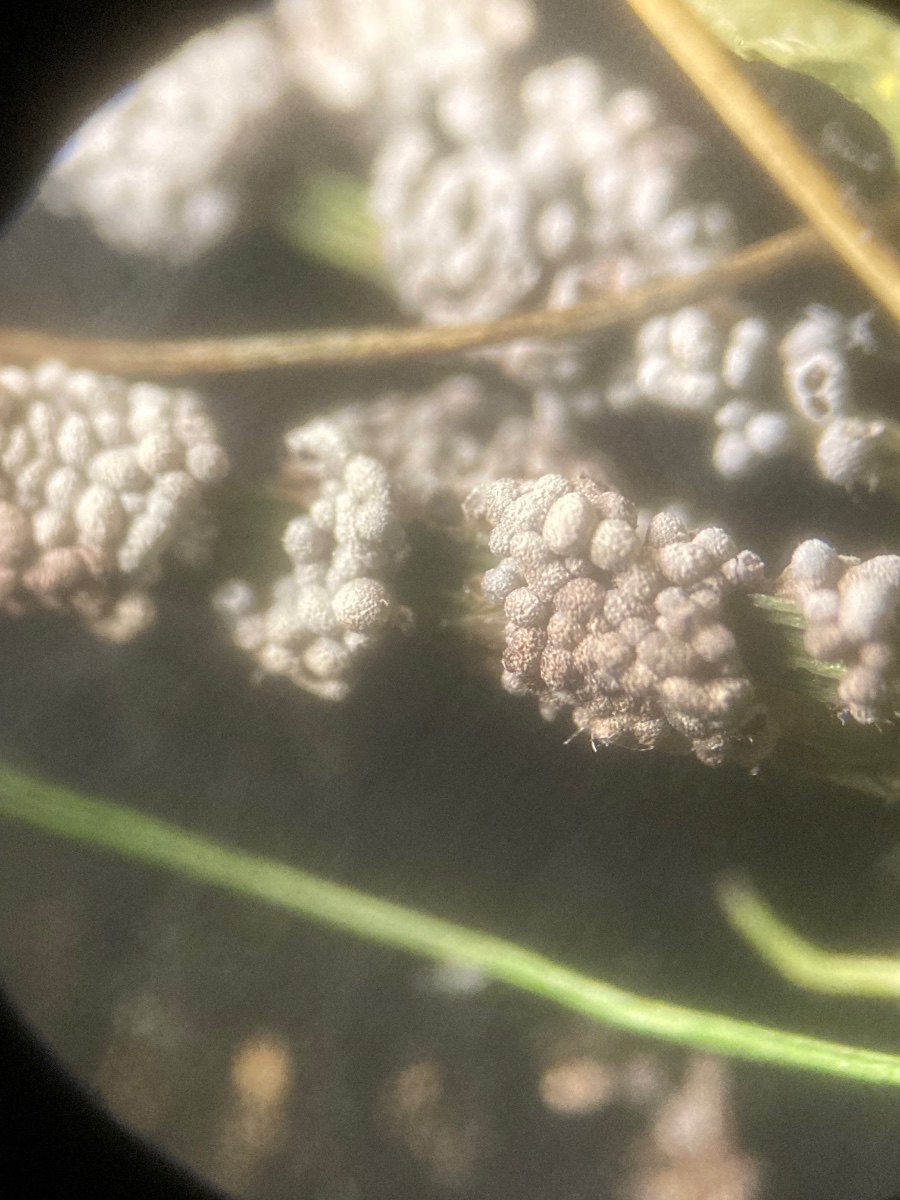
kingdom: Protozoa
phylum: Mycetozoa
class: Myxomycetes
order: Physarales
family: Physaraceae
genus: Physarum
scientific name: Physarum cinereum
